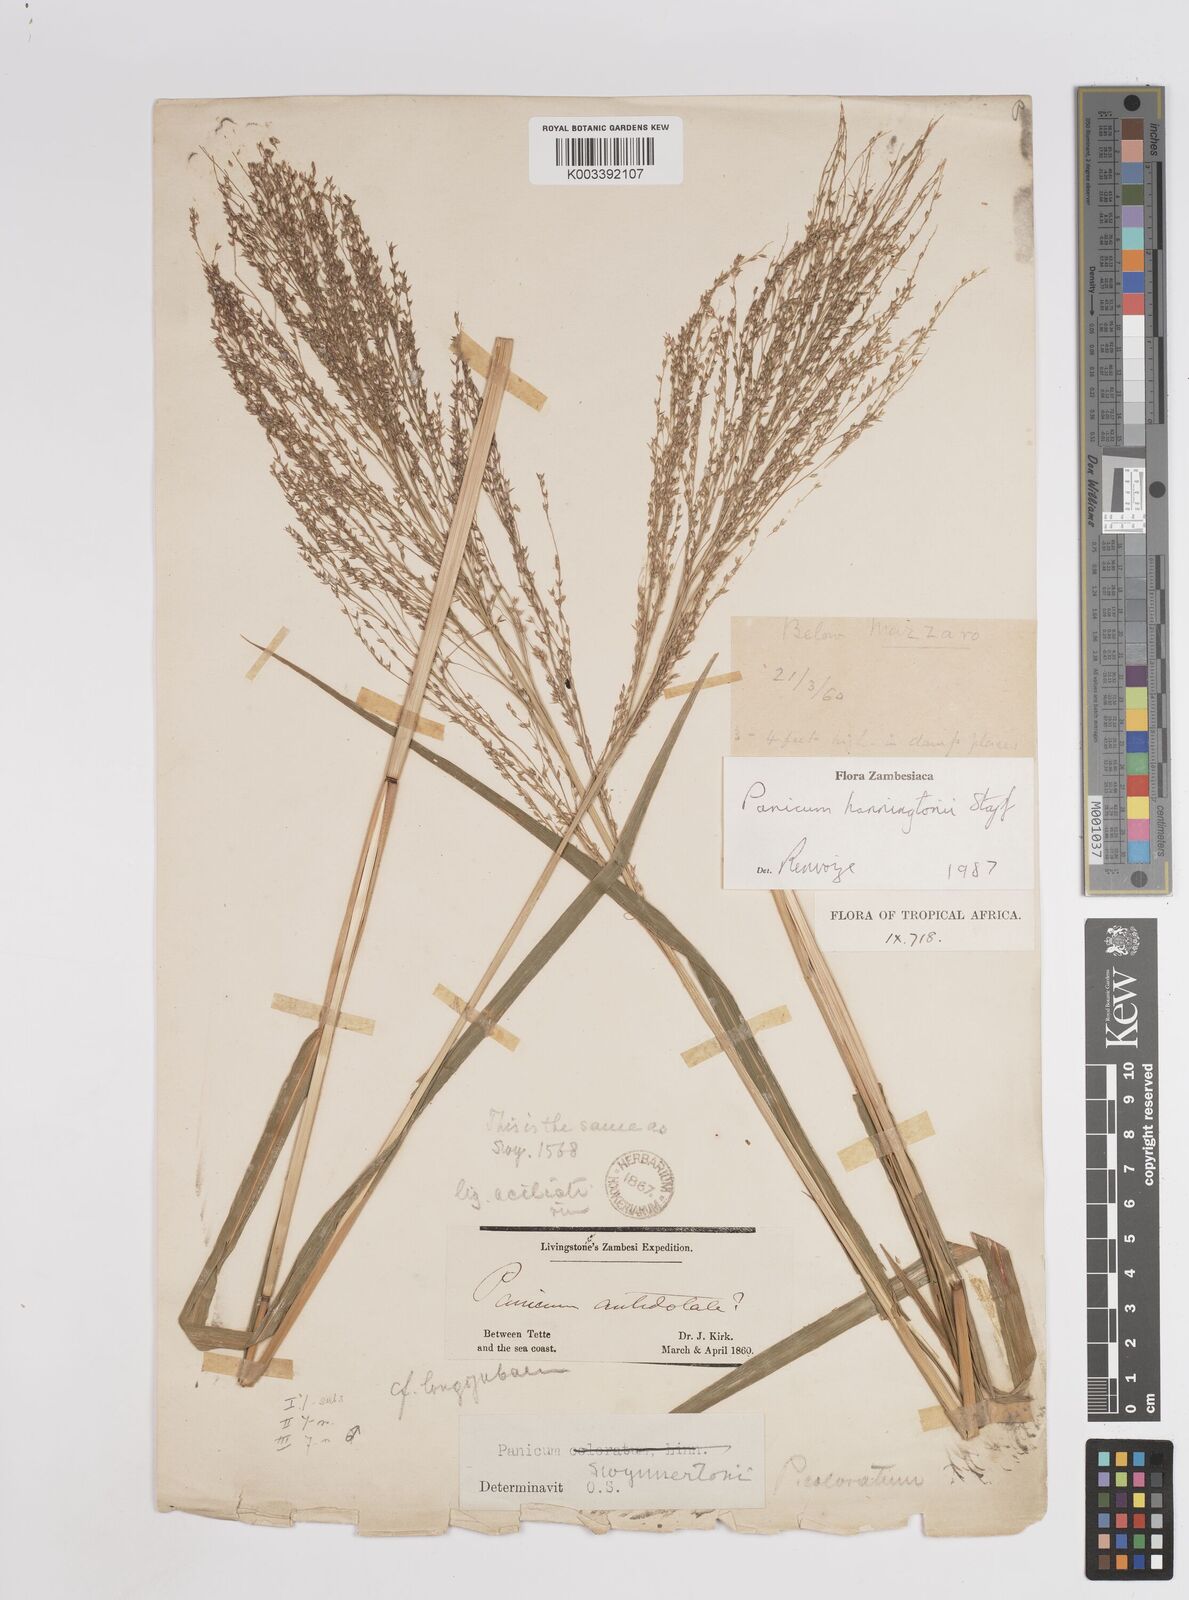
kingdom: Plantae
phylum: Tracheophyta
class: Liliopsida
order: Poales
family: Poaceae
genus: Panicum
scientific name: Panicum hanningtonii
